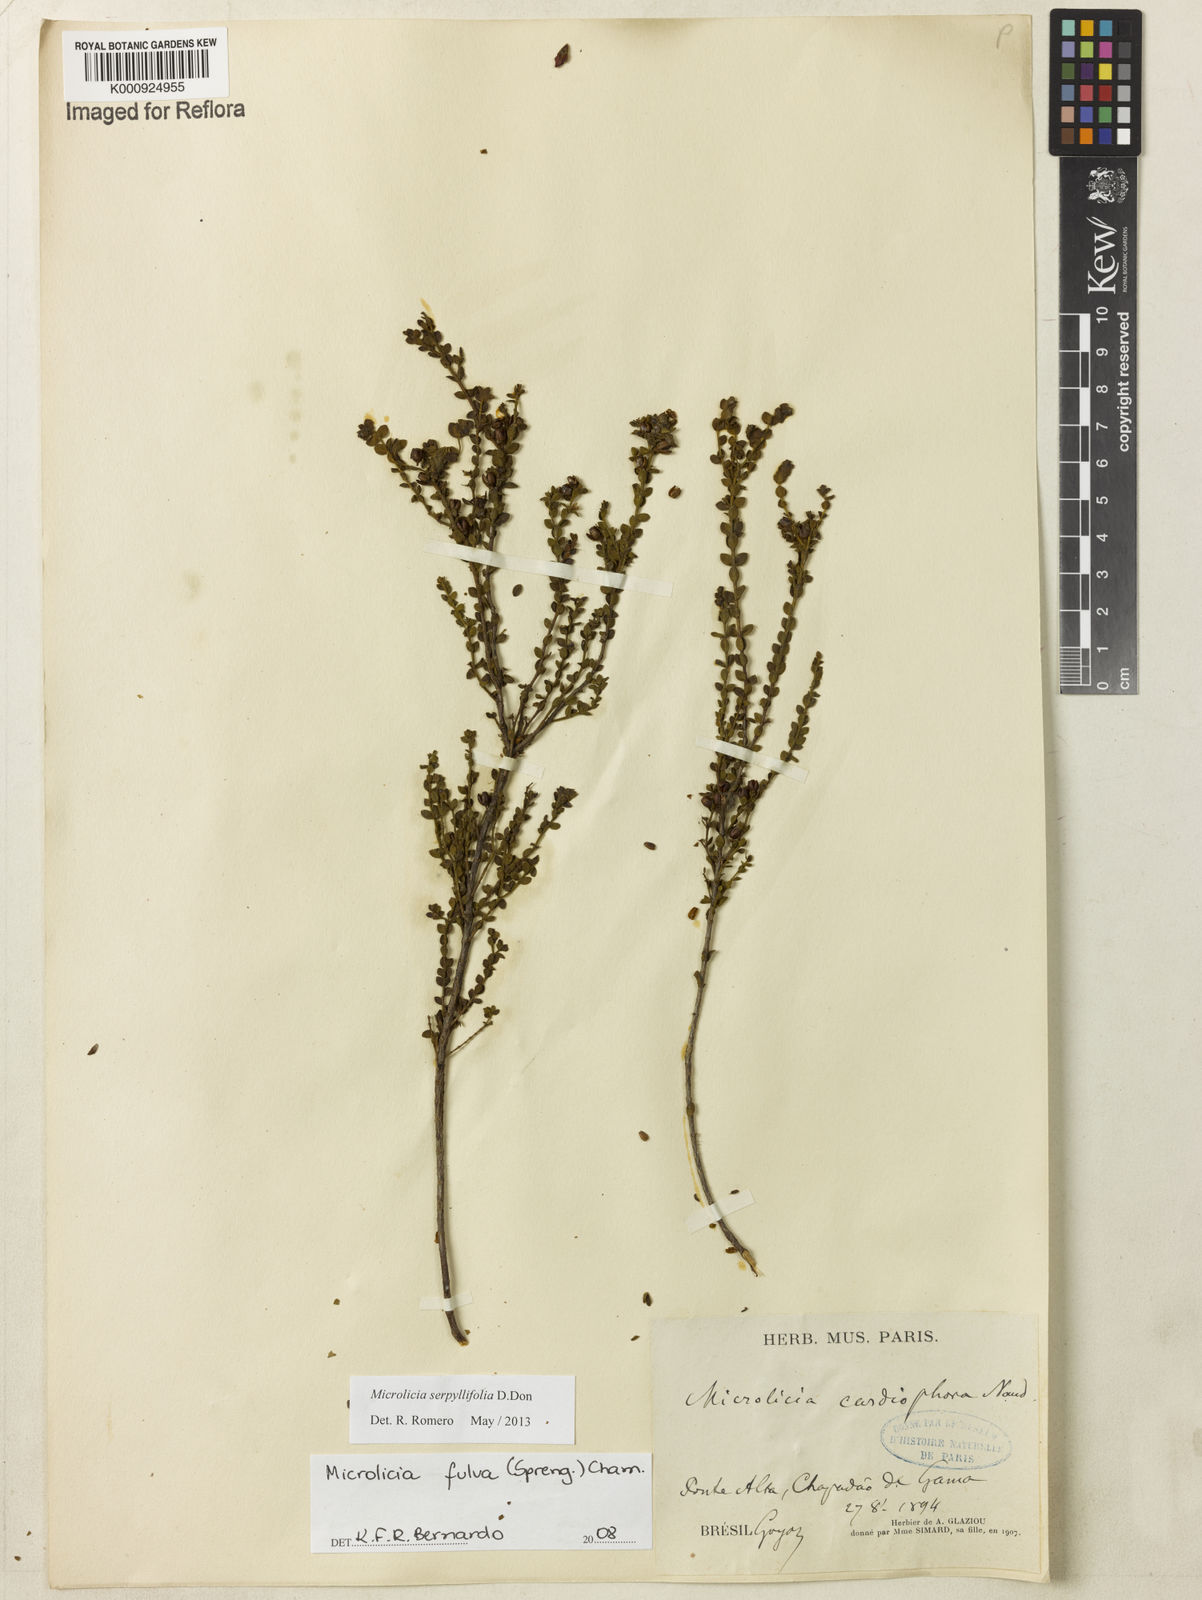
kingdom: Plantae
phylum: Tracheophyta
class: Magnoliopsida
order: Myrtales
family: Melastomataceae
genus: Microlicia
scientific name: Microlicia fulva
